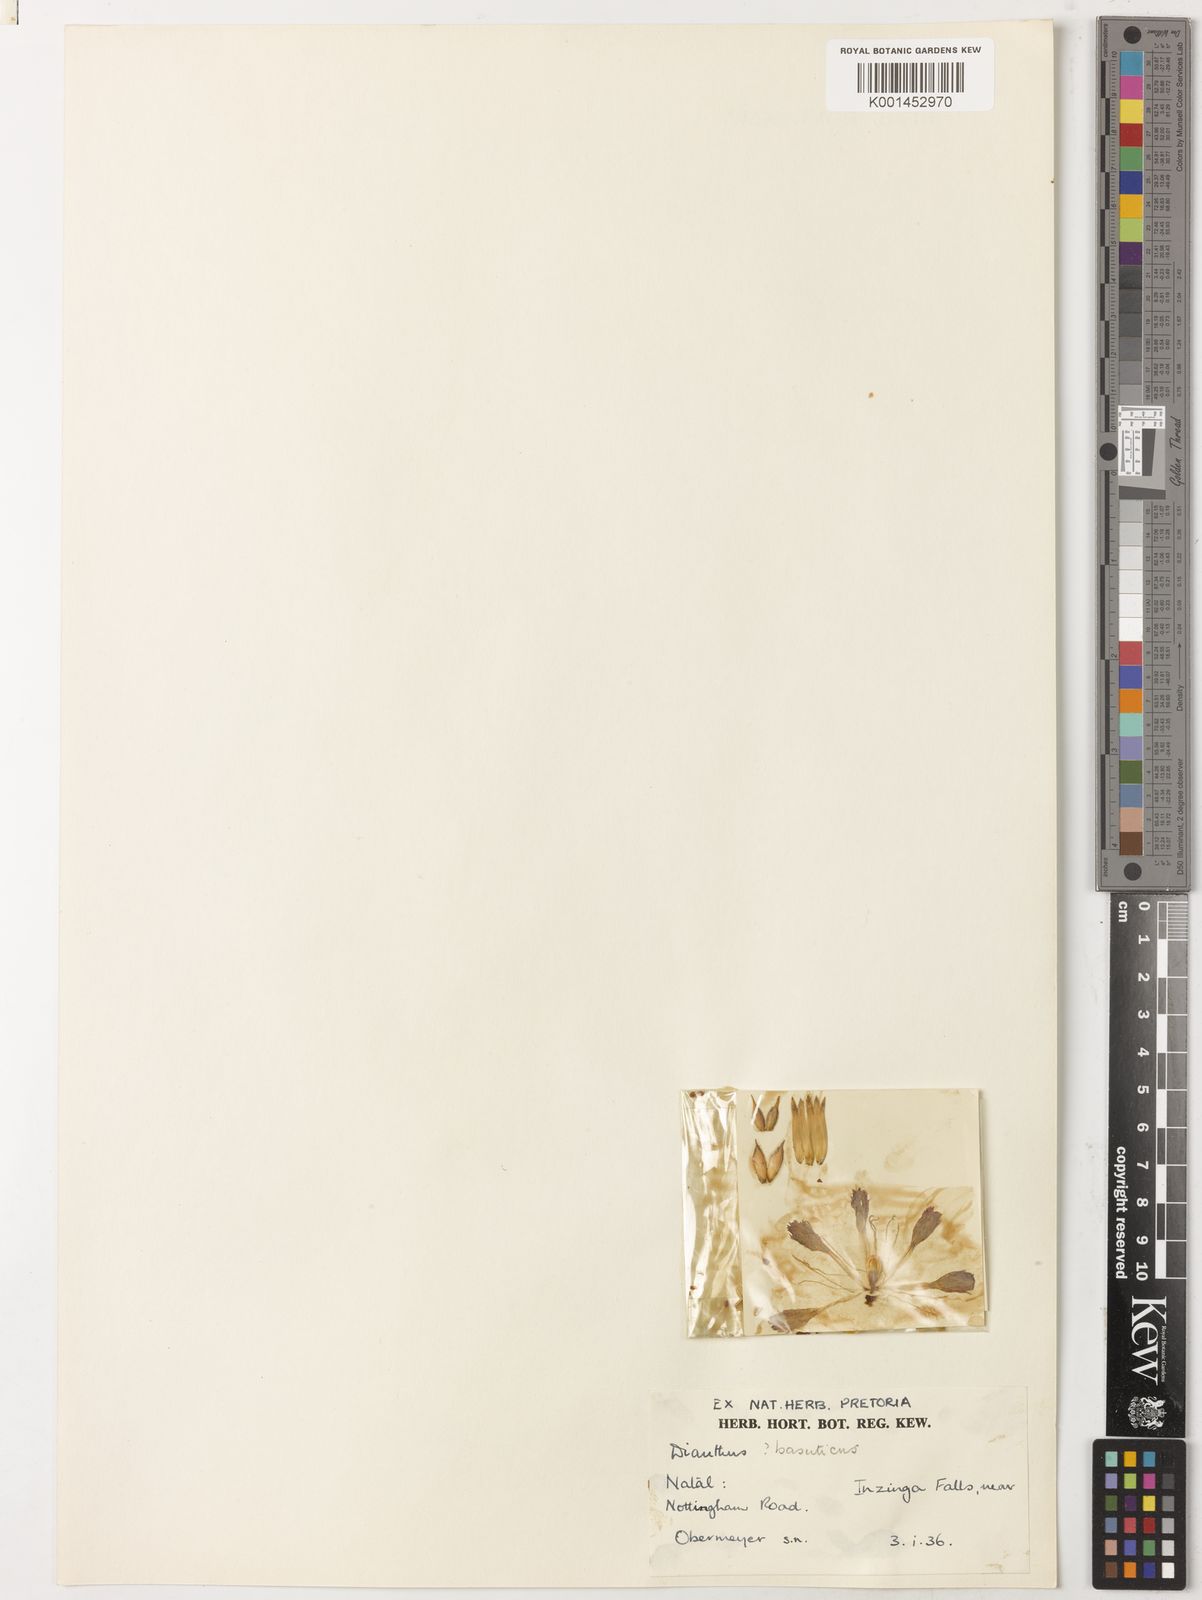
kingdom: Plantae
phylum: Tracheophyta
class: Magnoliopsida
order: Caryophyllales
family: Caryophyllaceae
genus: Dianthus
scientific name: Dianthus basuticus
